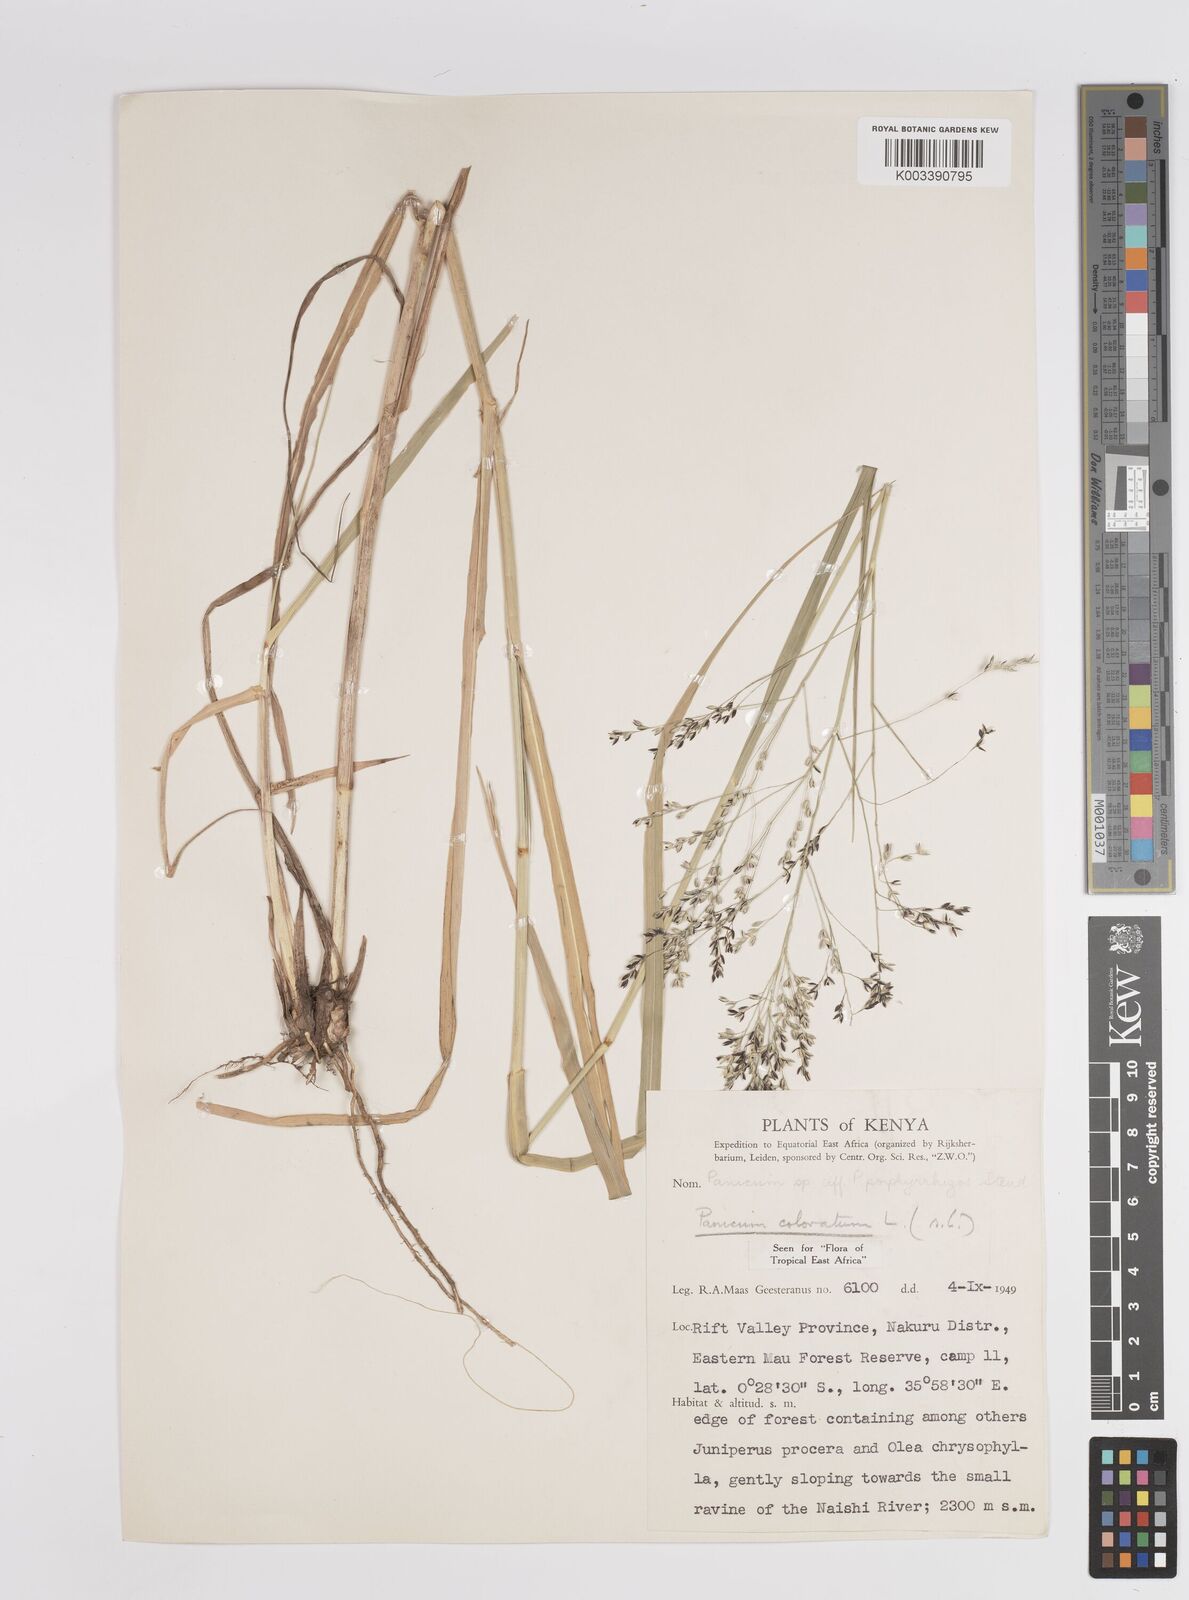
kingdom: Plantae
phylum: Tracheophyta
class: Liliopsida
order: Poales
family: Poaceae
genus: Panicum
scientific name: Panicum coloratum
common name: Kleingrass
